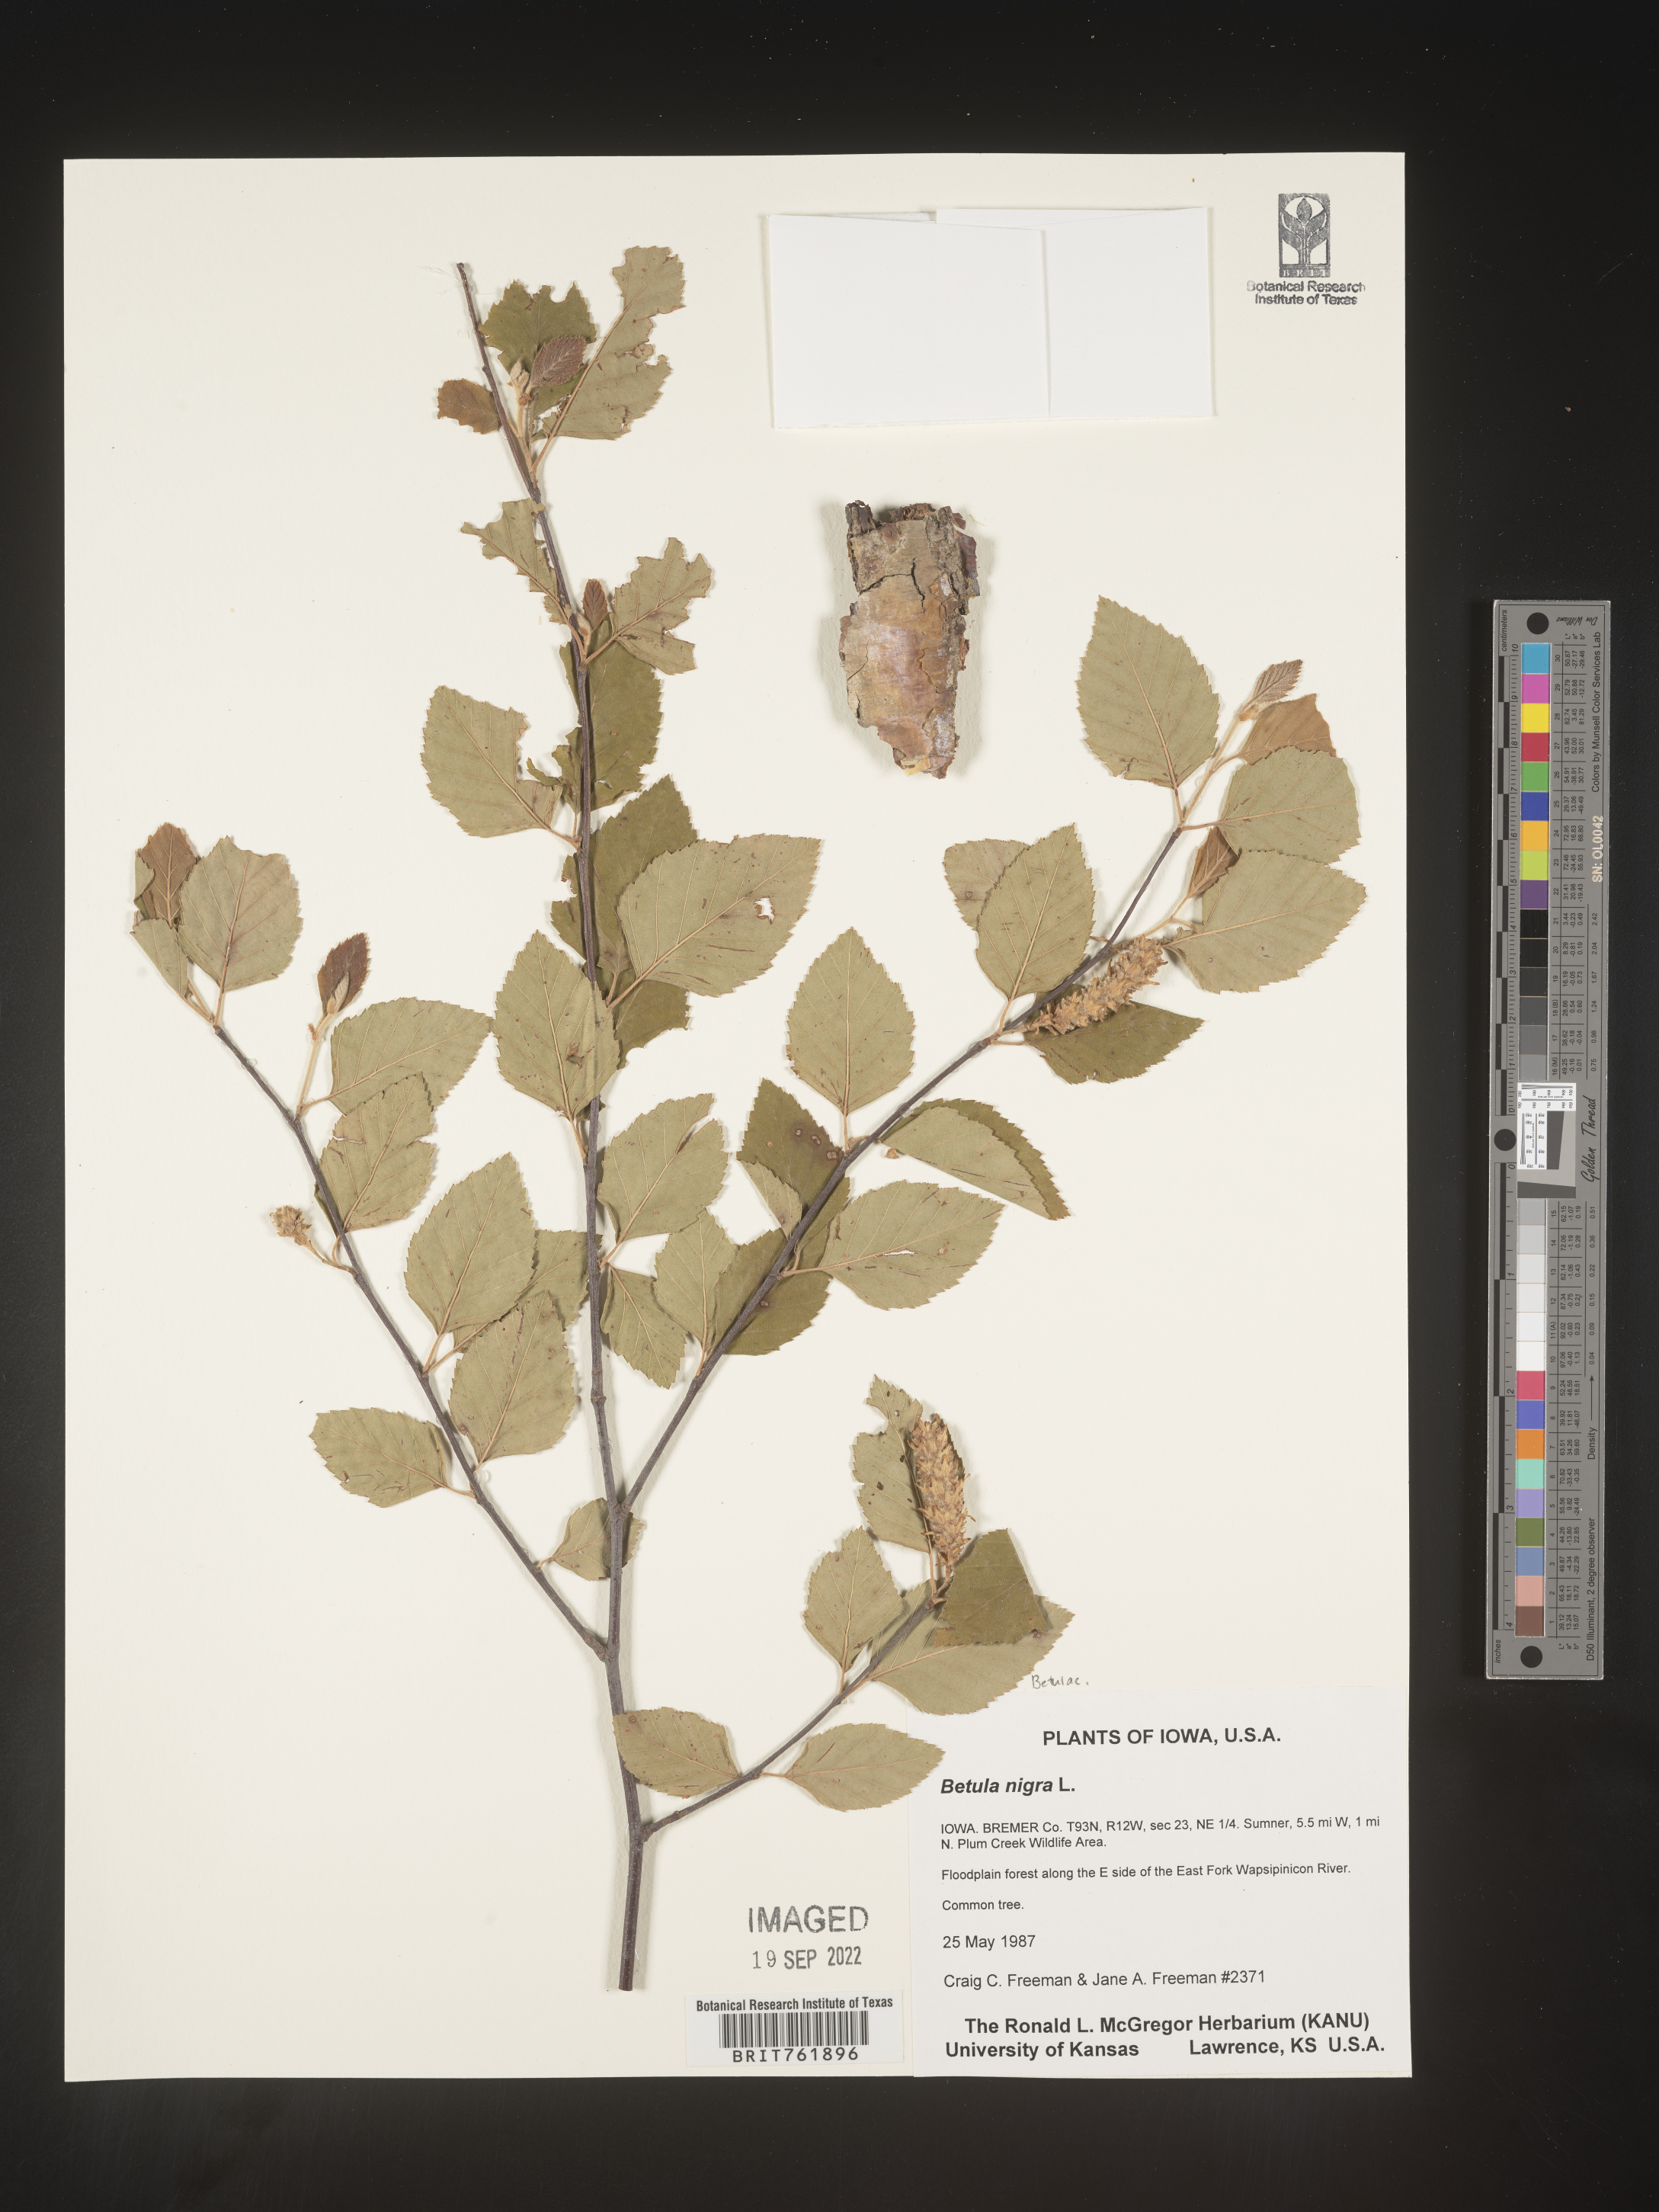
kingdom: Plantae
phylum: Tracheophyta
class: Magnoliopsida
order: Fagales
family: Betulaceae
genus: Betula
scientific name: Betula nigra
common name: Black birch
